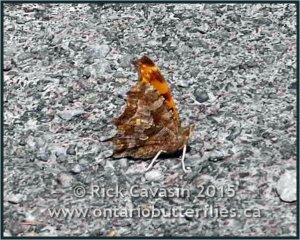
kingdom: Animalia
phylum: Arthropoda
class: Insecta
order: Lepidoptera
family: Nymphalidae
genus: Polygonia
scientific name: Polygonia comma
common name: Eastern Comma
